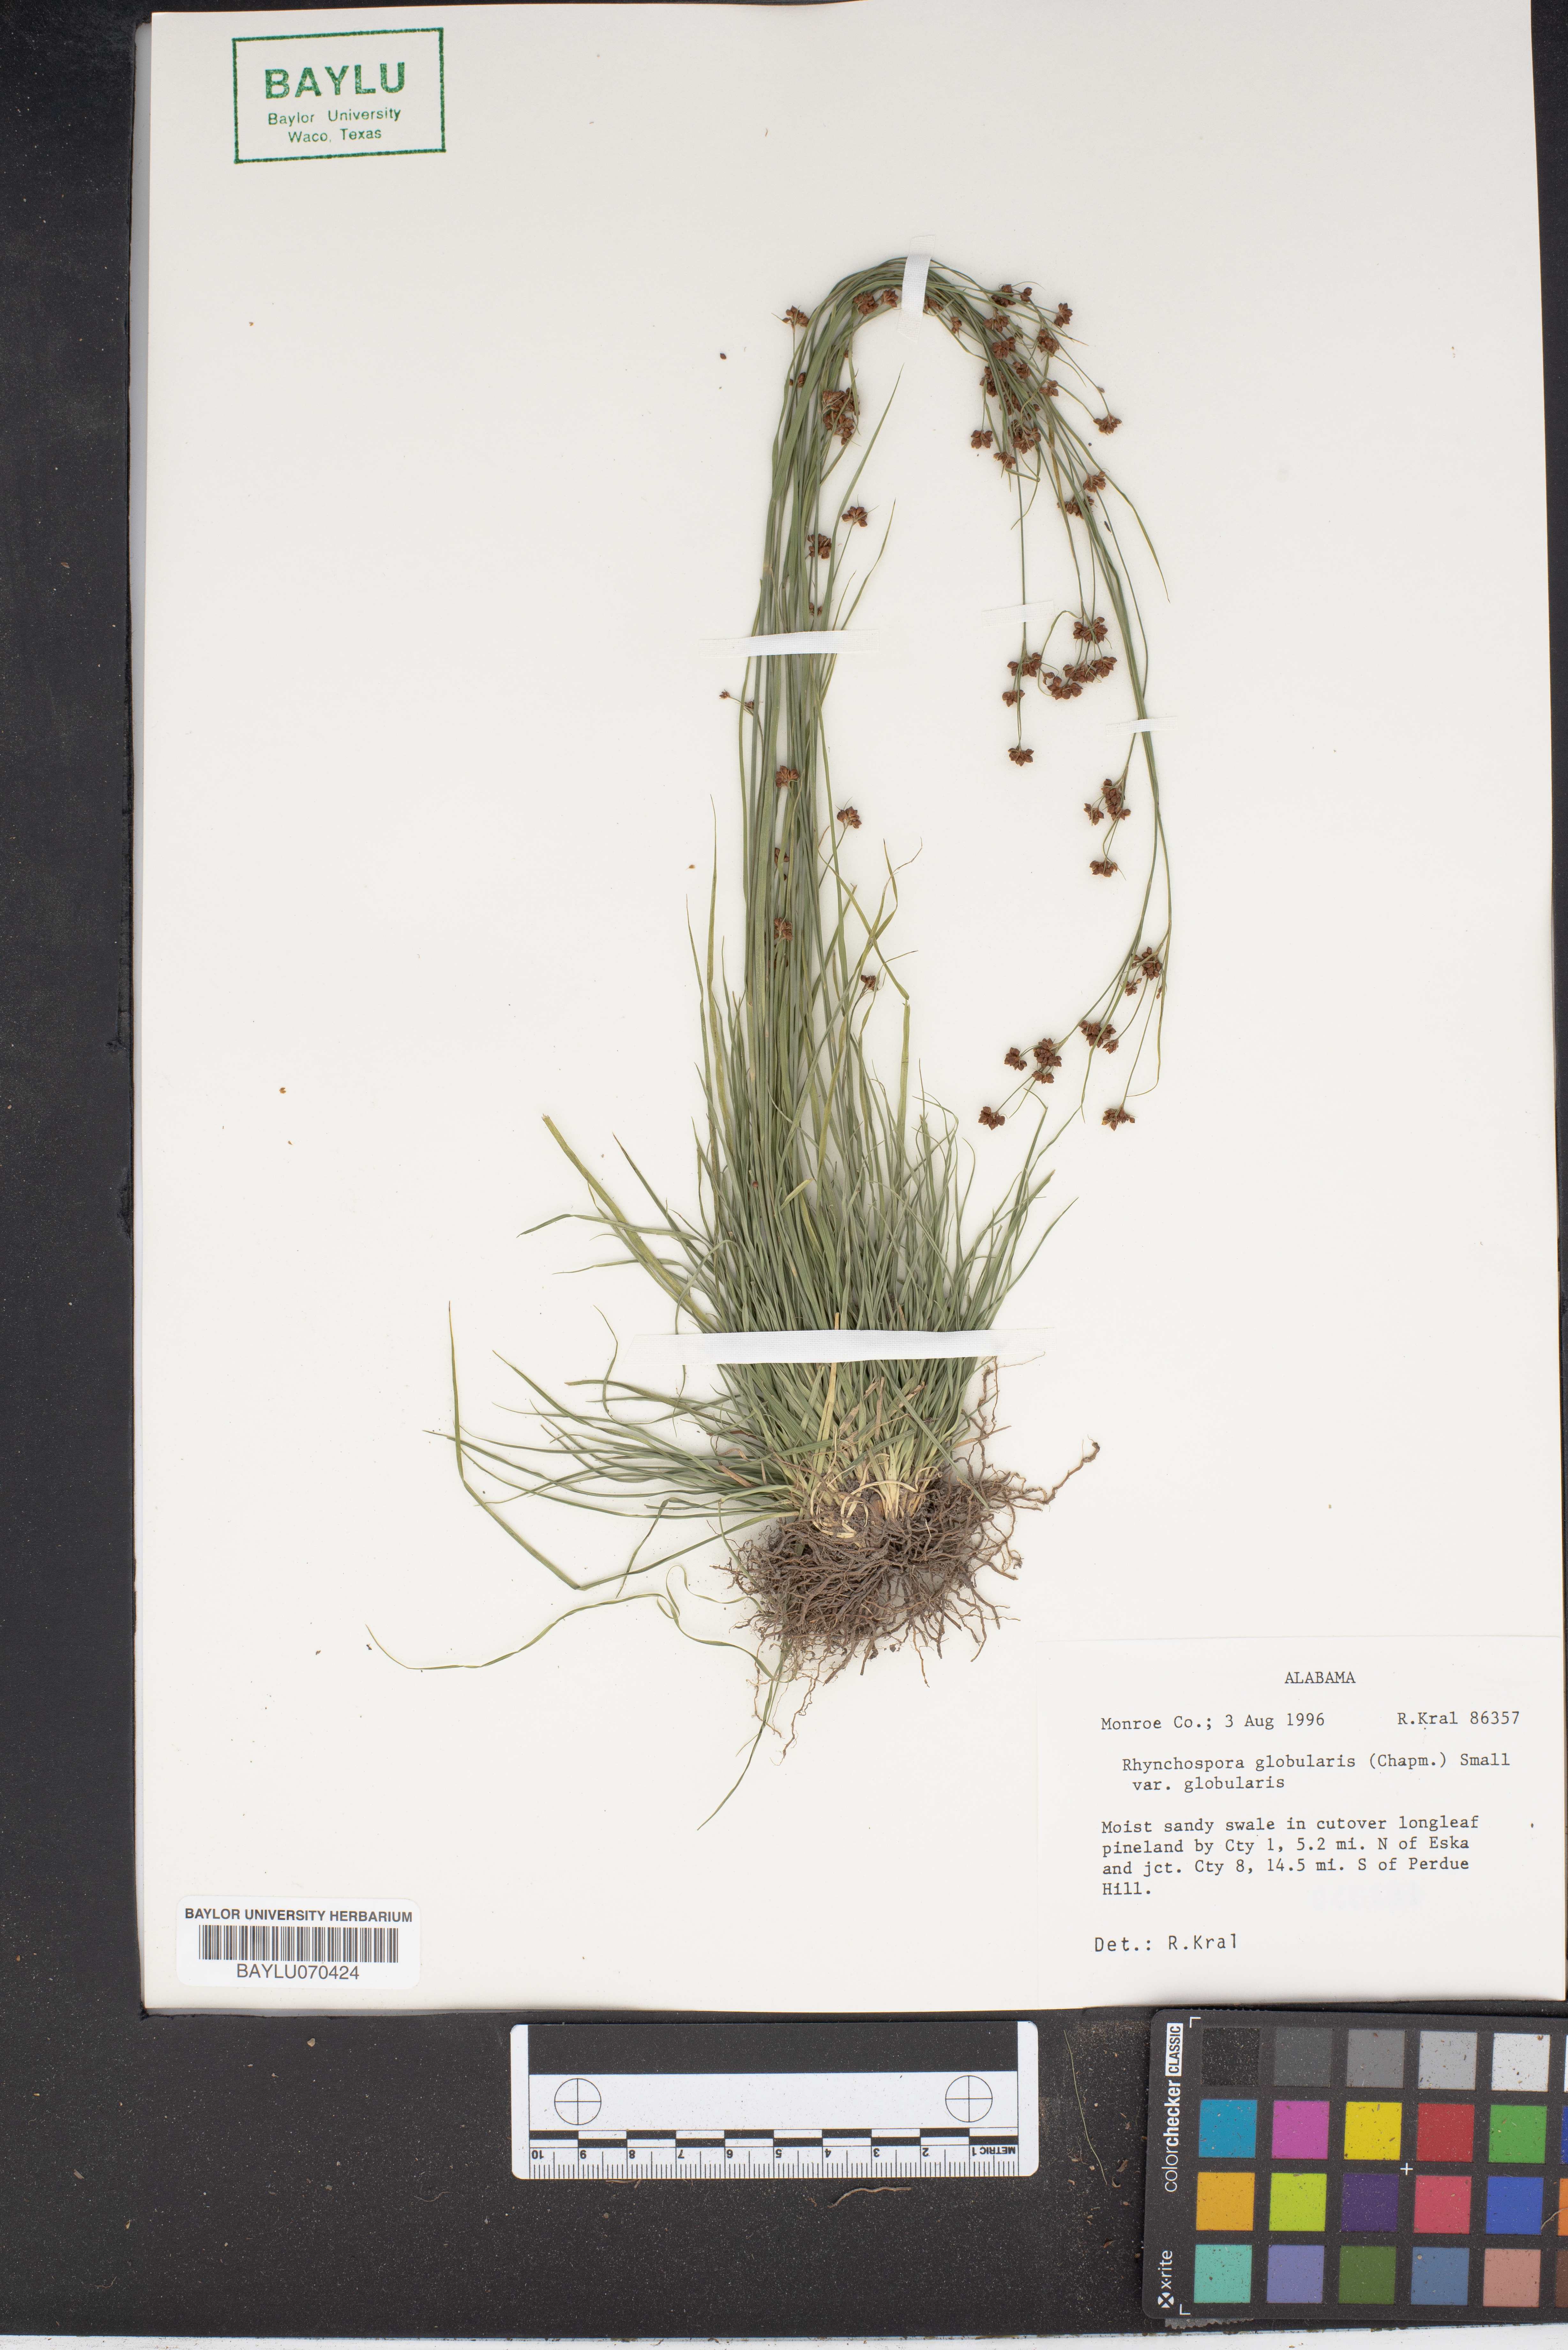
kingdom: Plantae
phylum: Tracheophyta
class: Liliopsida
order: Poales
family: Cyperaceae
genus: Rhynchospora
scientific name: Rhynchospora globularis
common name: Globe beaksedge
